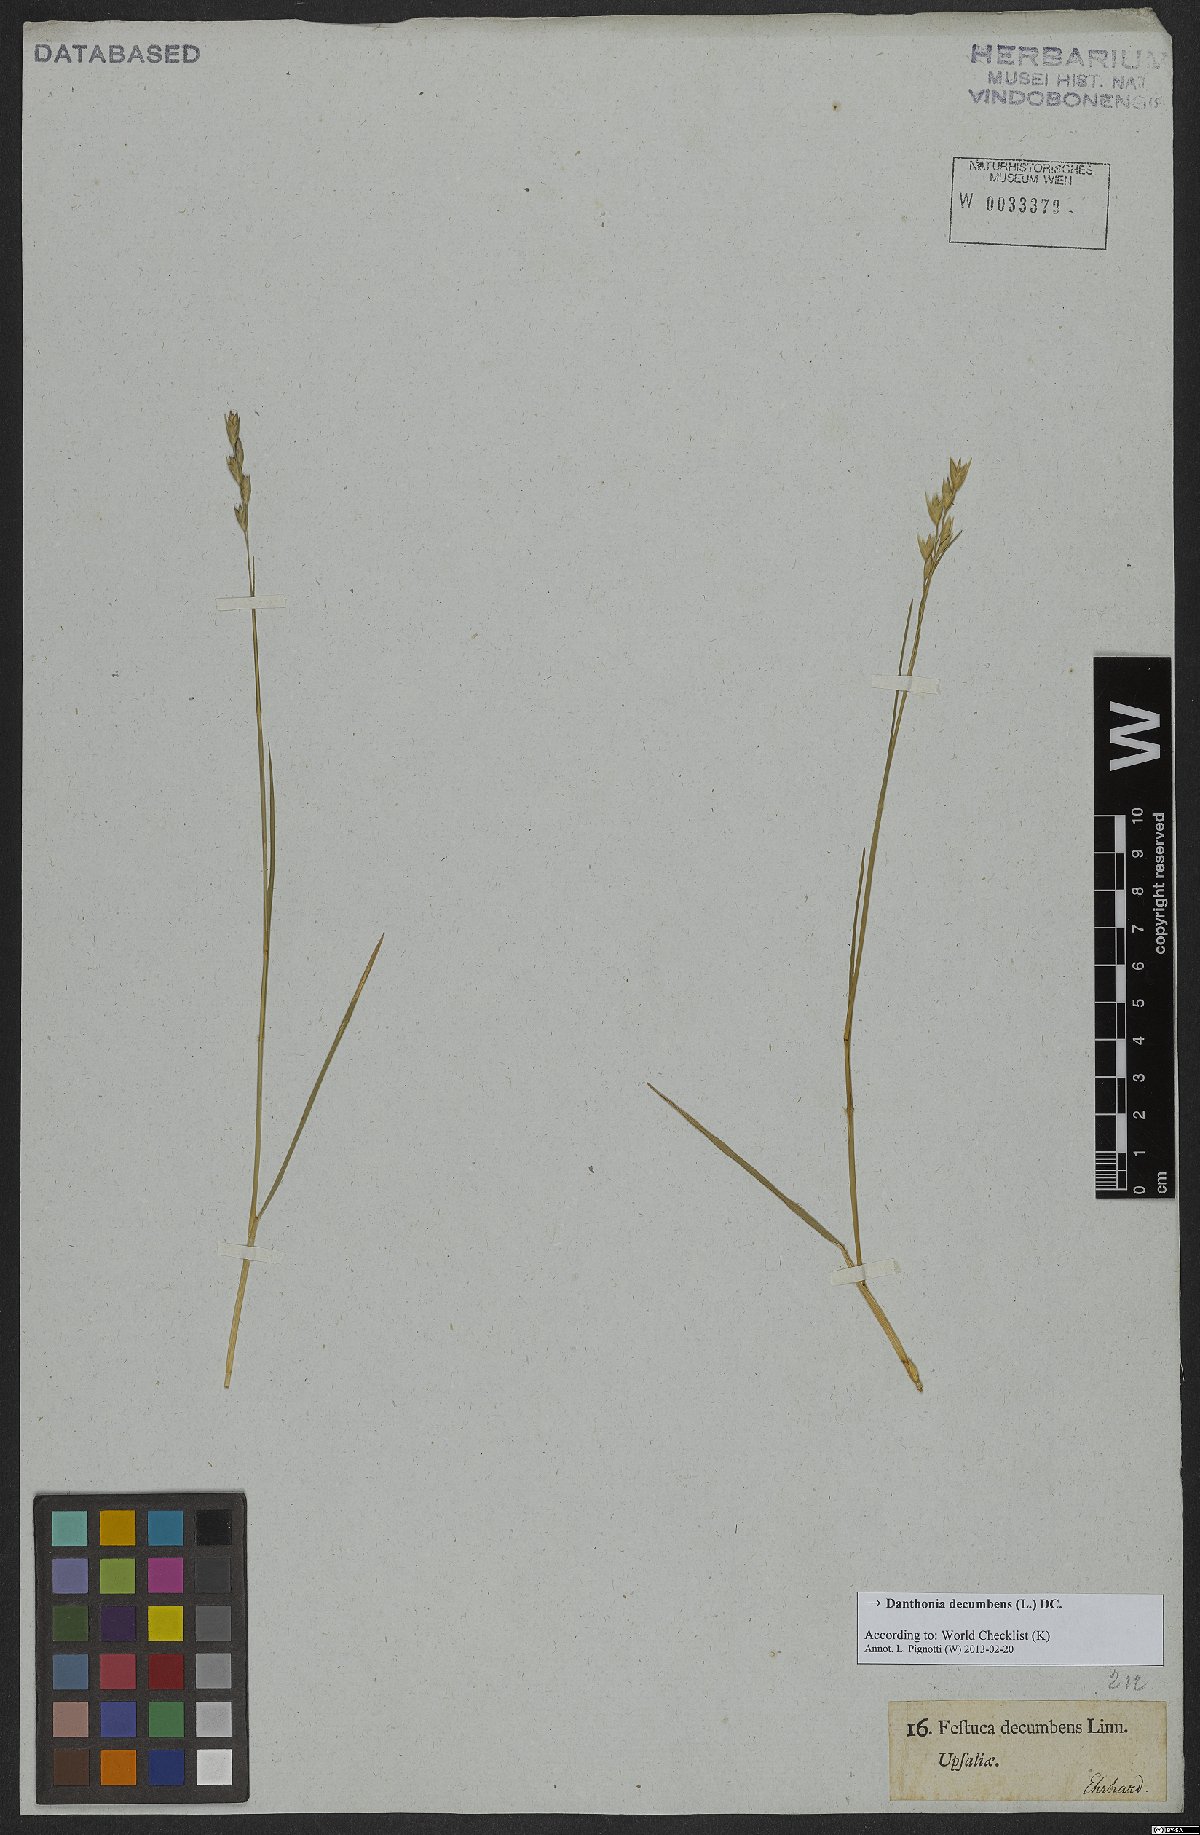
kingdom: Plantae
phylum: Tracheophyta
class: Liliopsida
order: Poales
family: Poaceae
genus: Danthonia
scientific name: Danthonia decumbens
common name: Common heathgrass
